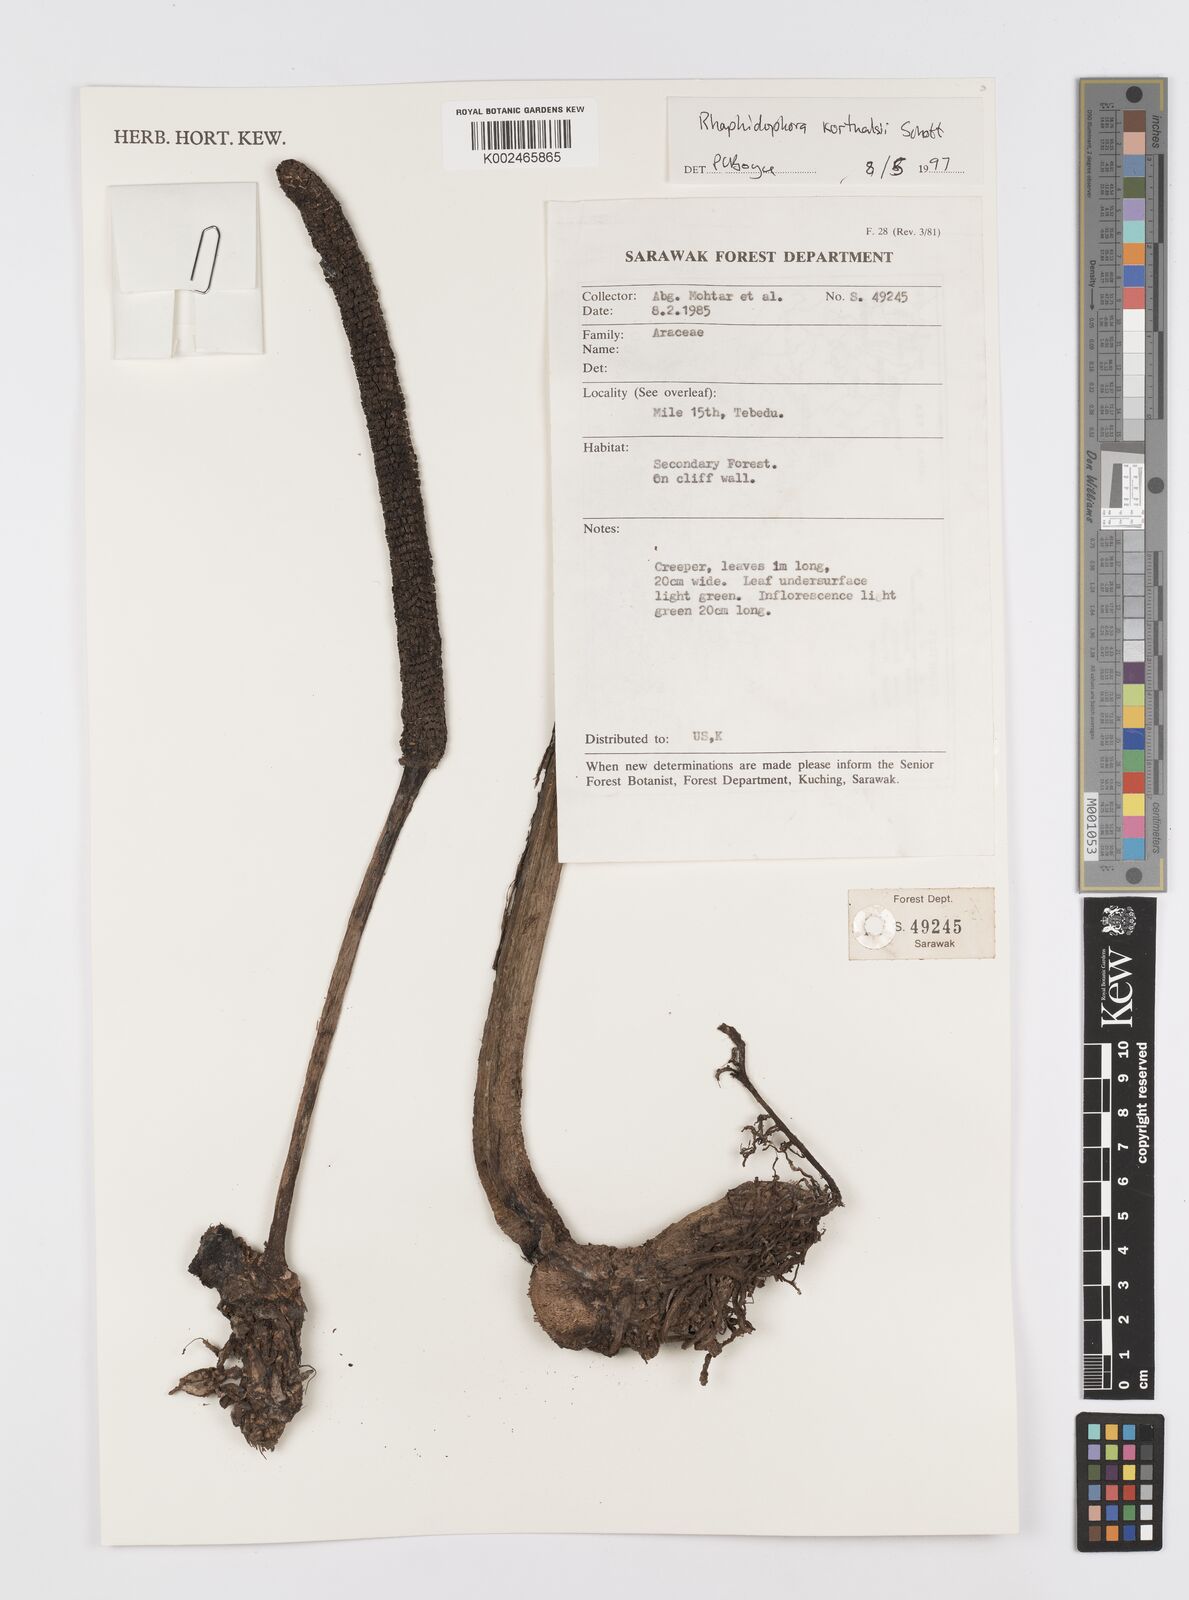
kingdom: Plantae
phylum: Tracheophyta
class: Liliopsida
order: Alismatales
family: Araceae
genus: Rhaphidophora
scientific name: Rhaphidophora korthalsii
